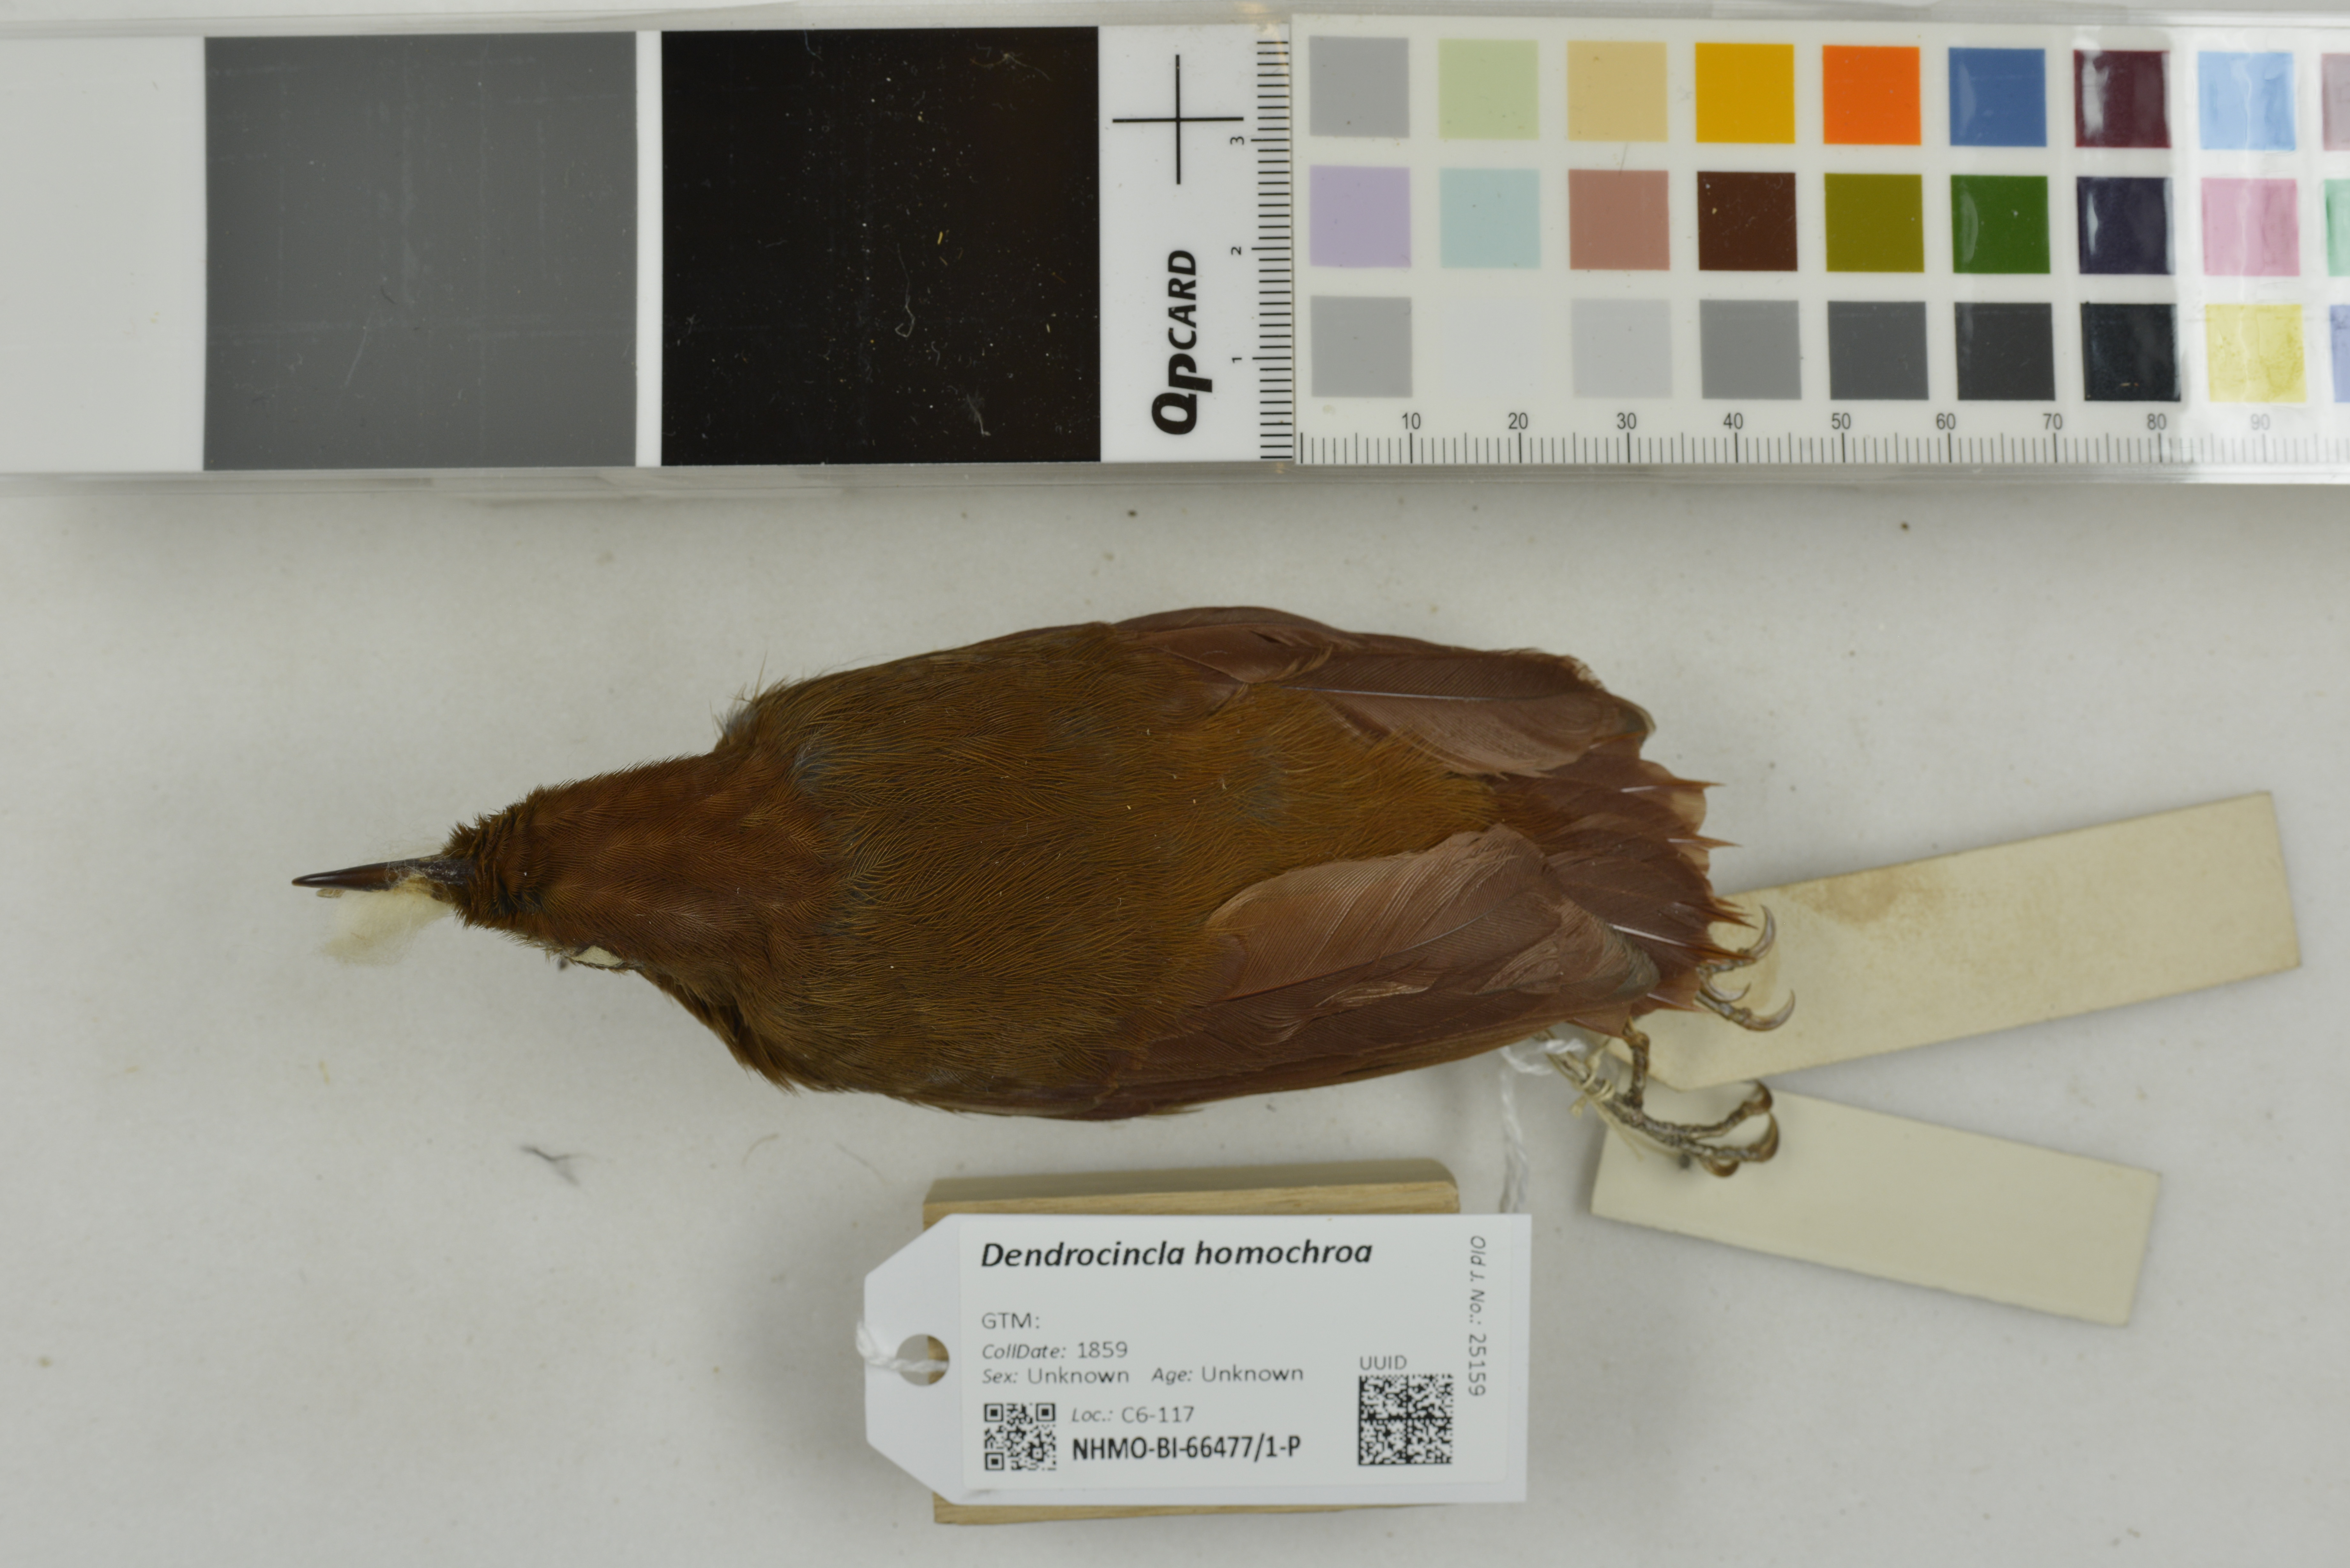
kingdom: Animalia
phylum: Chordata
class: Aves
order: Passeriformes
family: Furnariidae
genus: Dendrocincla
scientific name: Dendrocincla homochroa
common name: Ruddy woodcreeper
